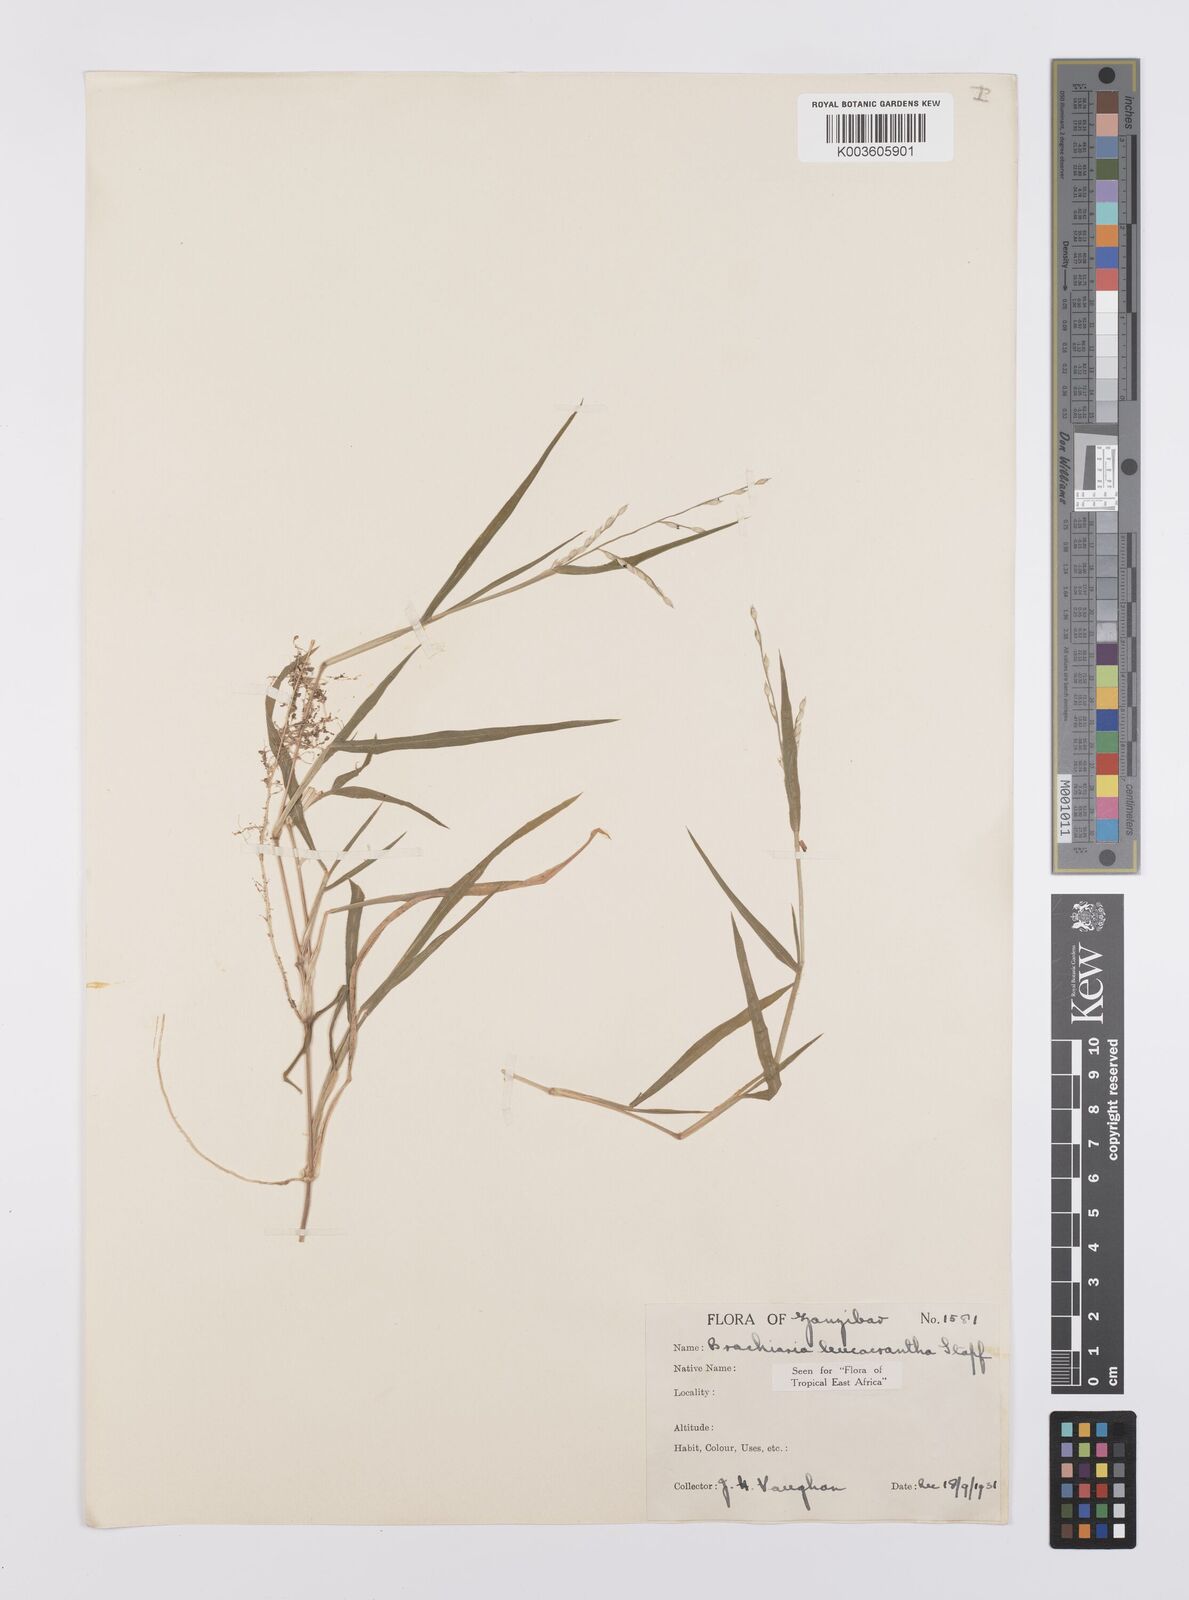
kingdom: Plantae
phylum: Tracheophyta
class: Liliopsida
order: Poales
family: Poaceae
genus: Urochloa
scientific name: Urochloa xantholeuca
